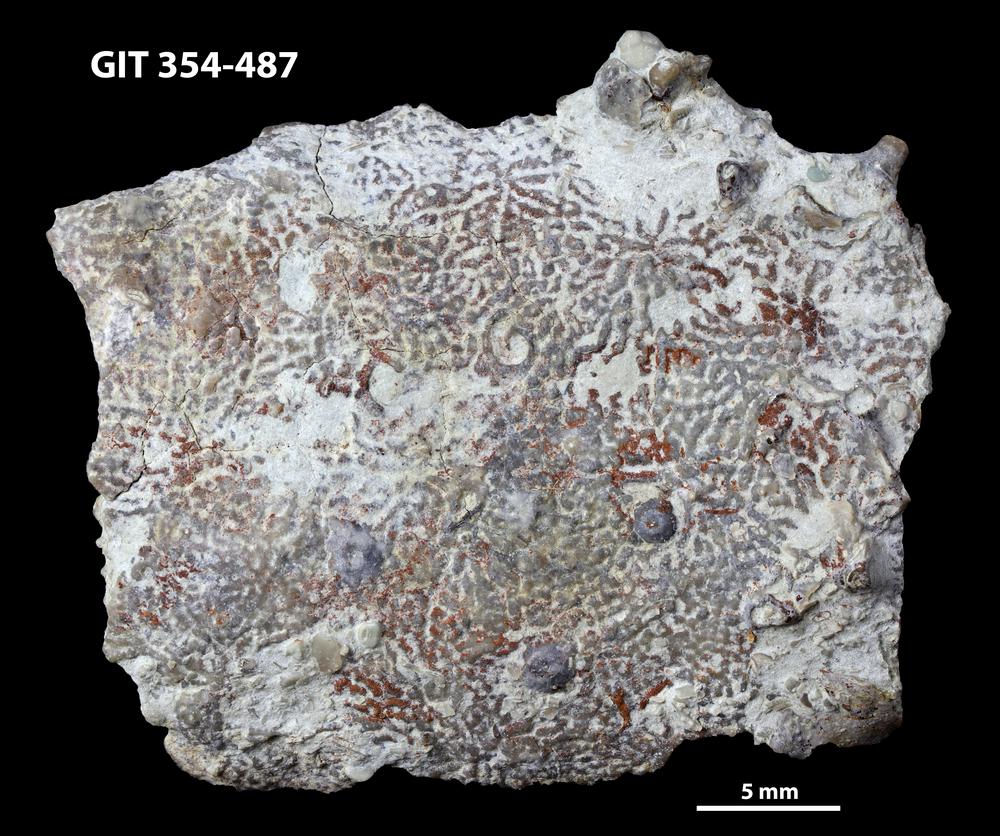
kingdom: Animalia
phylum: Porifera
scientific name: Porifera
